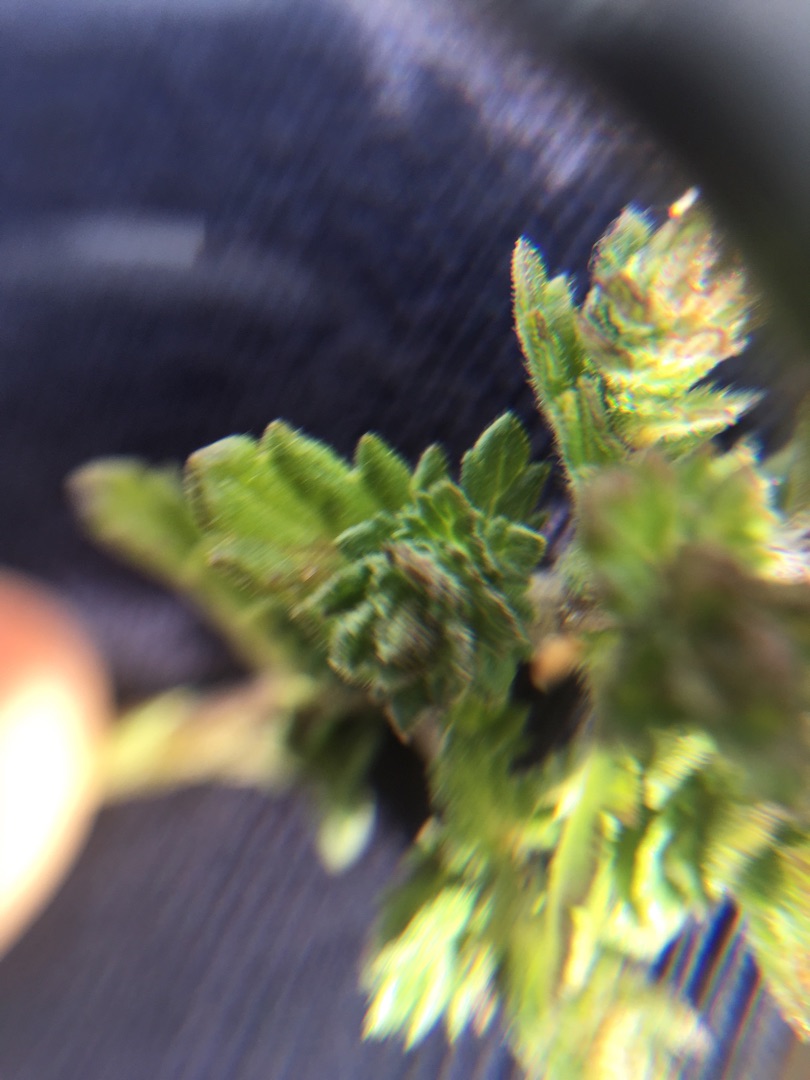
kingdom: Plantae
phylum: Tracheophyta
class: Magnoliopsida
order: Lamiales
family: Orobanchaceae
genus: Euphrasia
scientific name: Euphrasia nemorosa
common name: Kort øjentrøst
